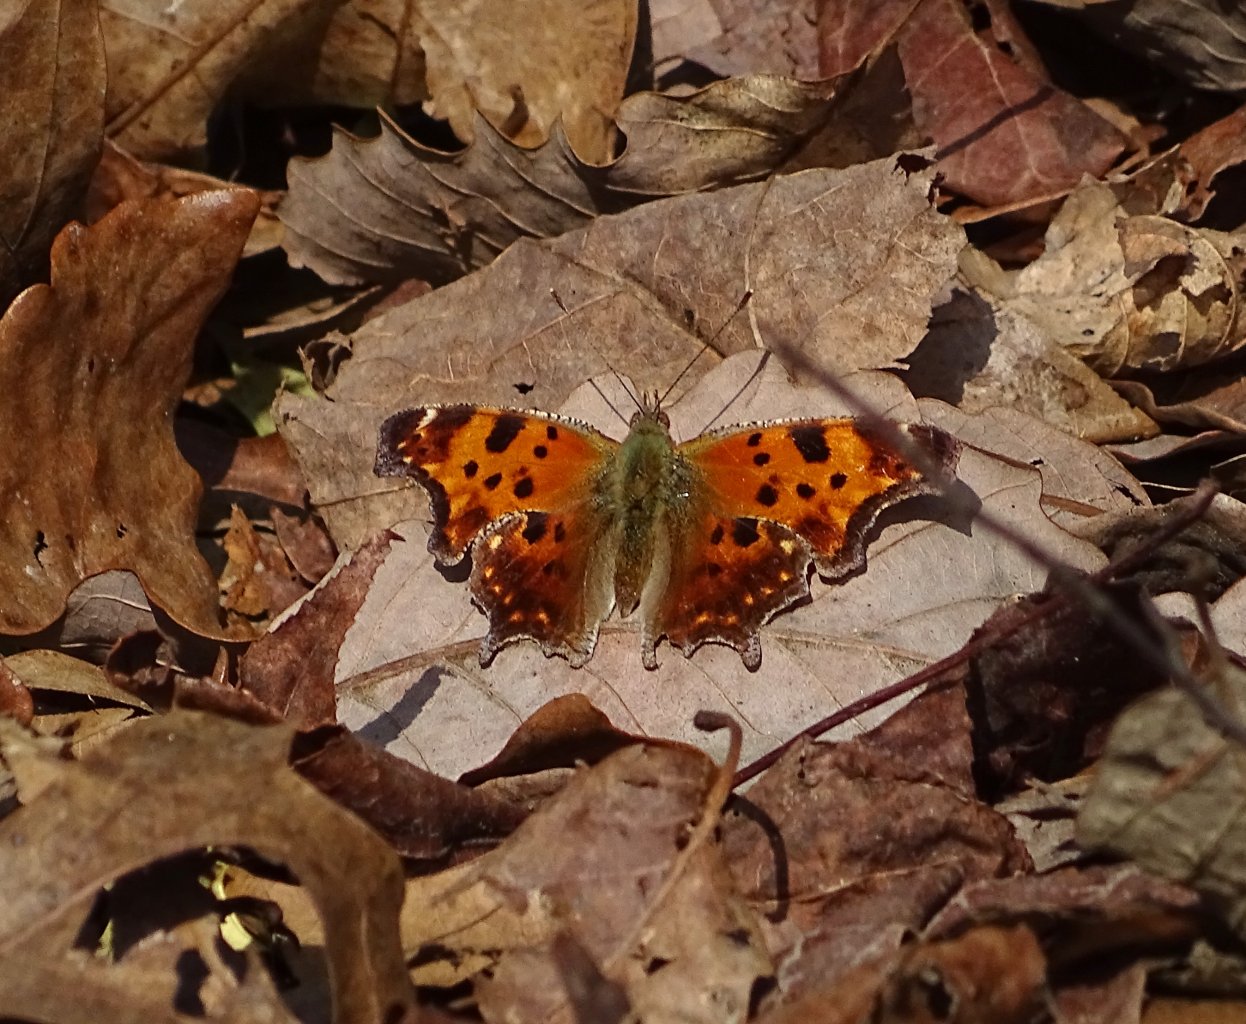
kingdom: Animalia
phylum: Arthropoda
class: Insecta
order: Lepidoptera
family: Nymphalidae
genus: Polygonia
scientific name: Polygonia comma
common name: Eastern Comma
